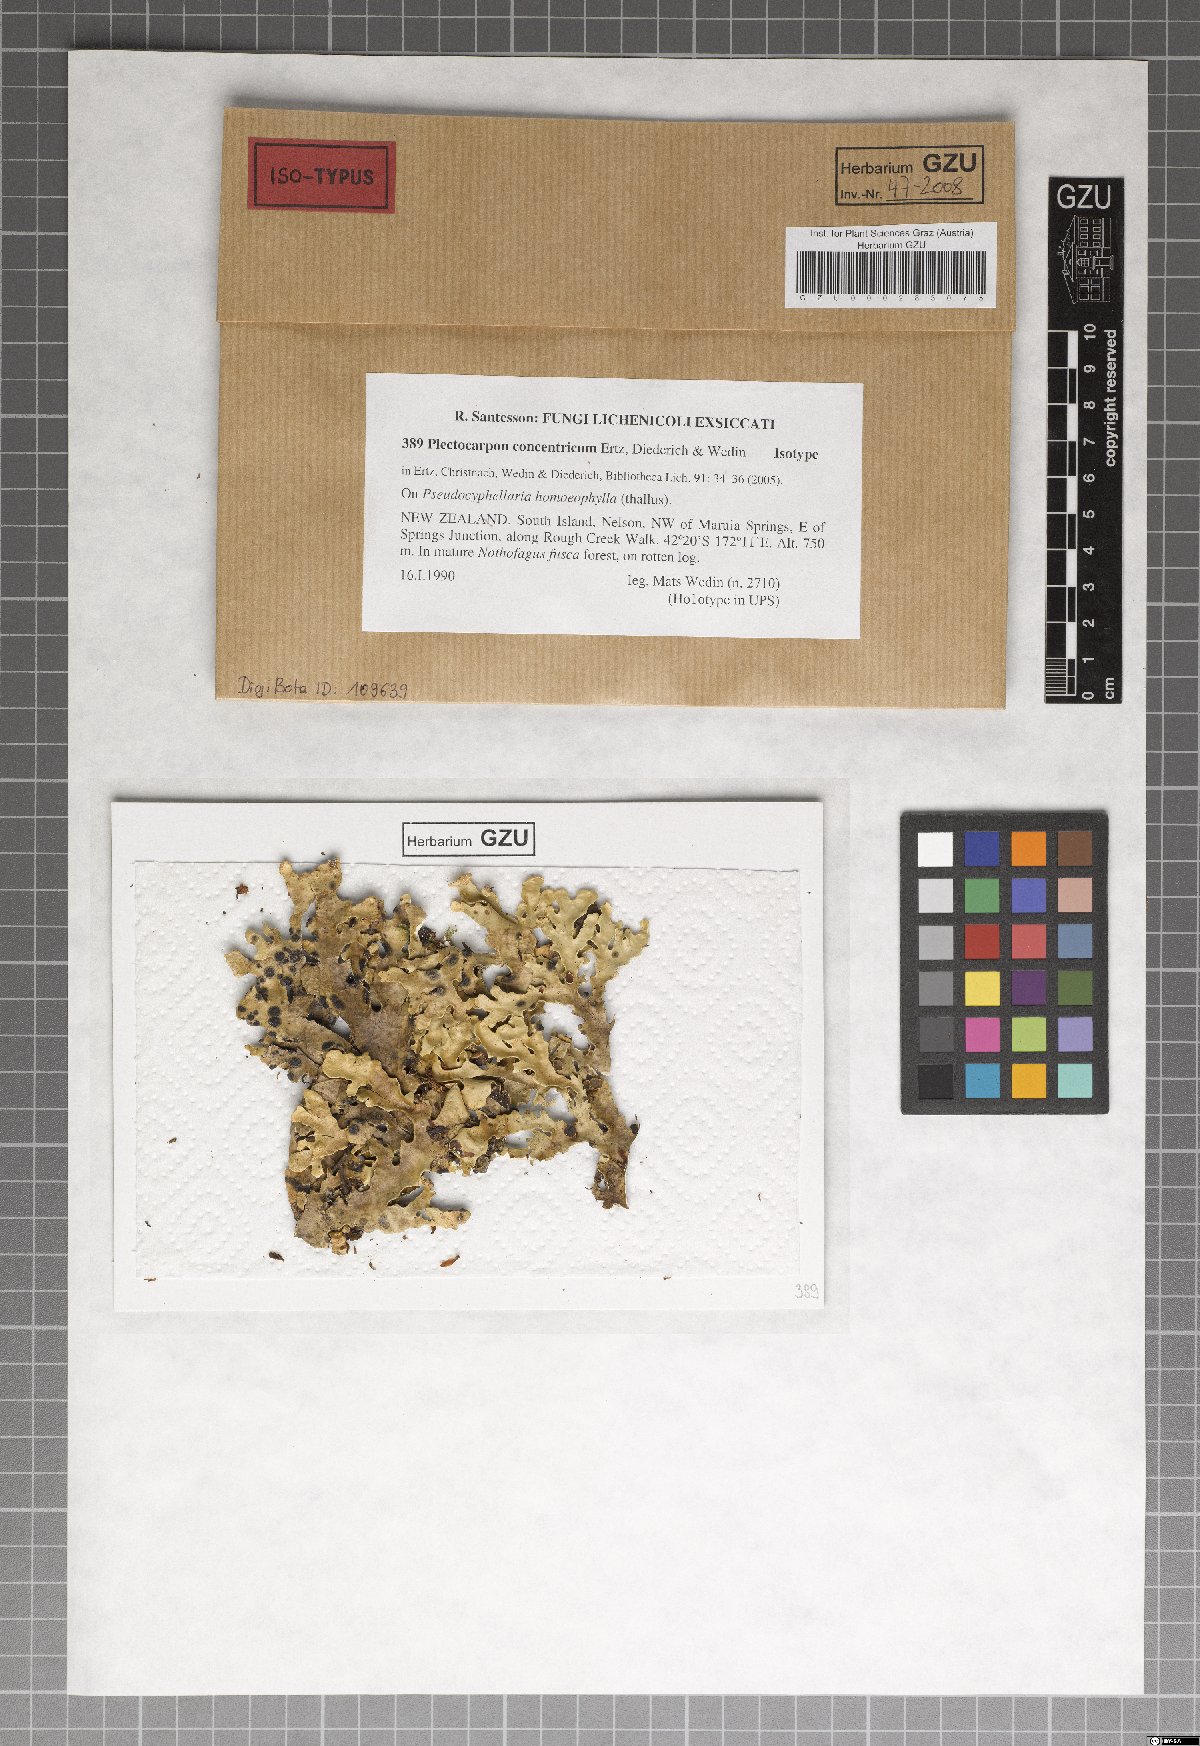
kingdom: Fungi
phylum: Ascomycota
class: Arthoniomycetes
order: Arthoniales
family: Lecanographaceae
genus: Plectocarpon
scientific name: Plectocarpon concentricum
